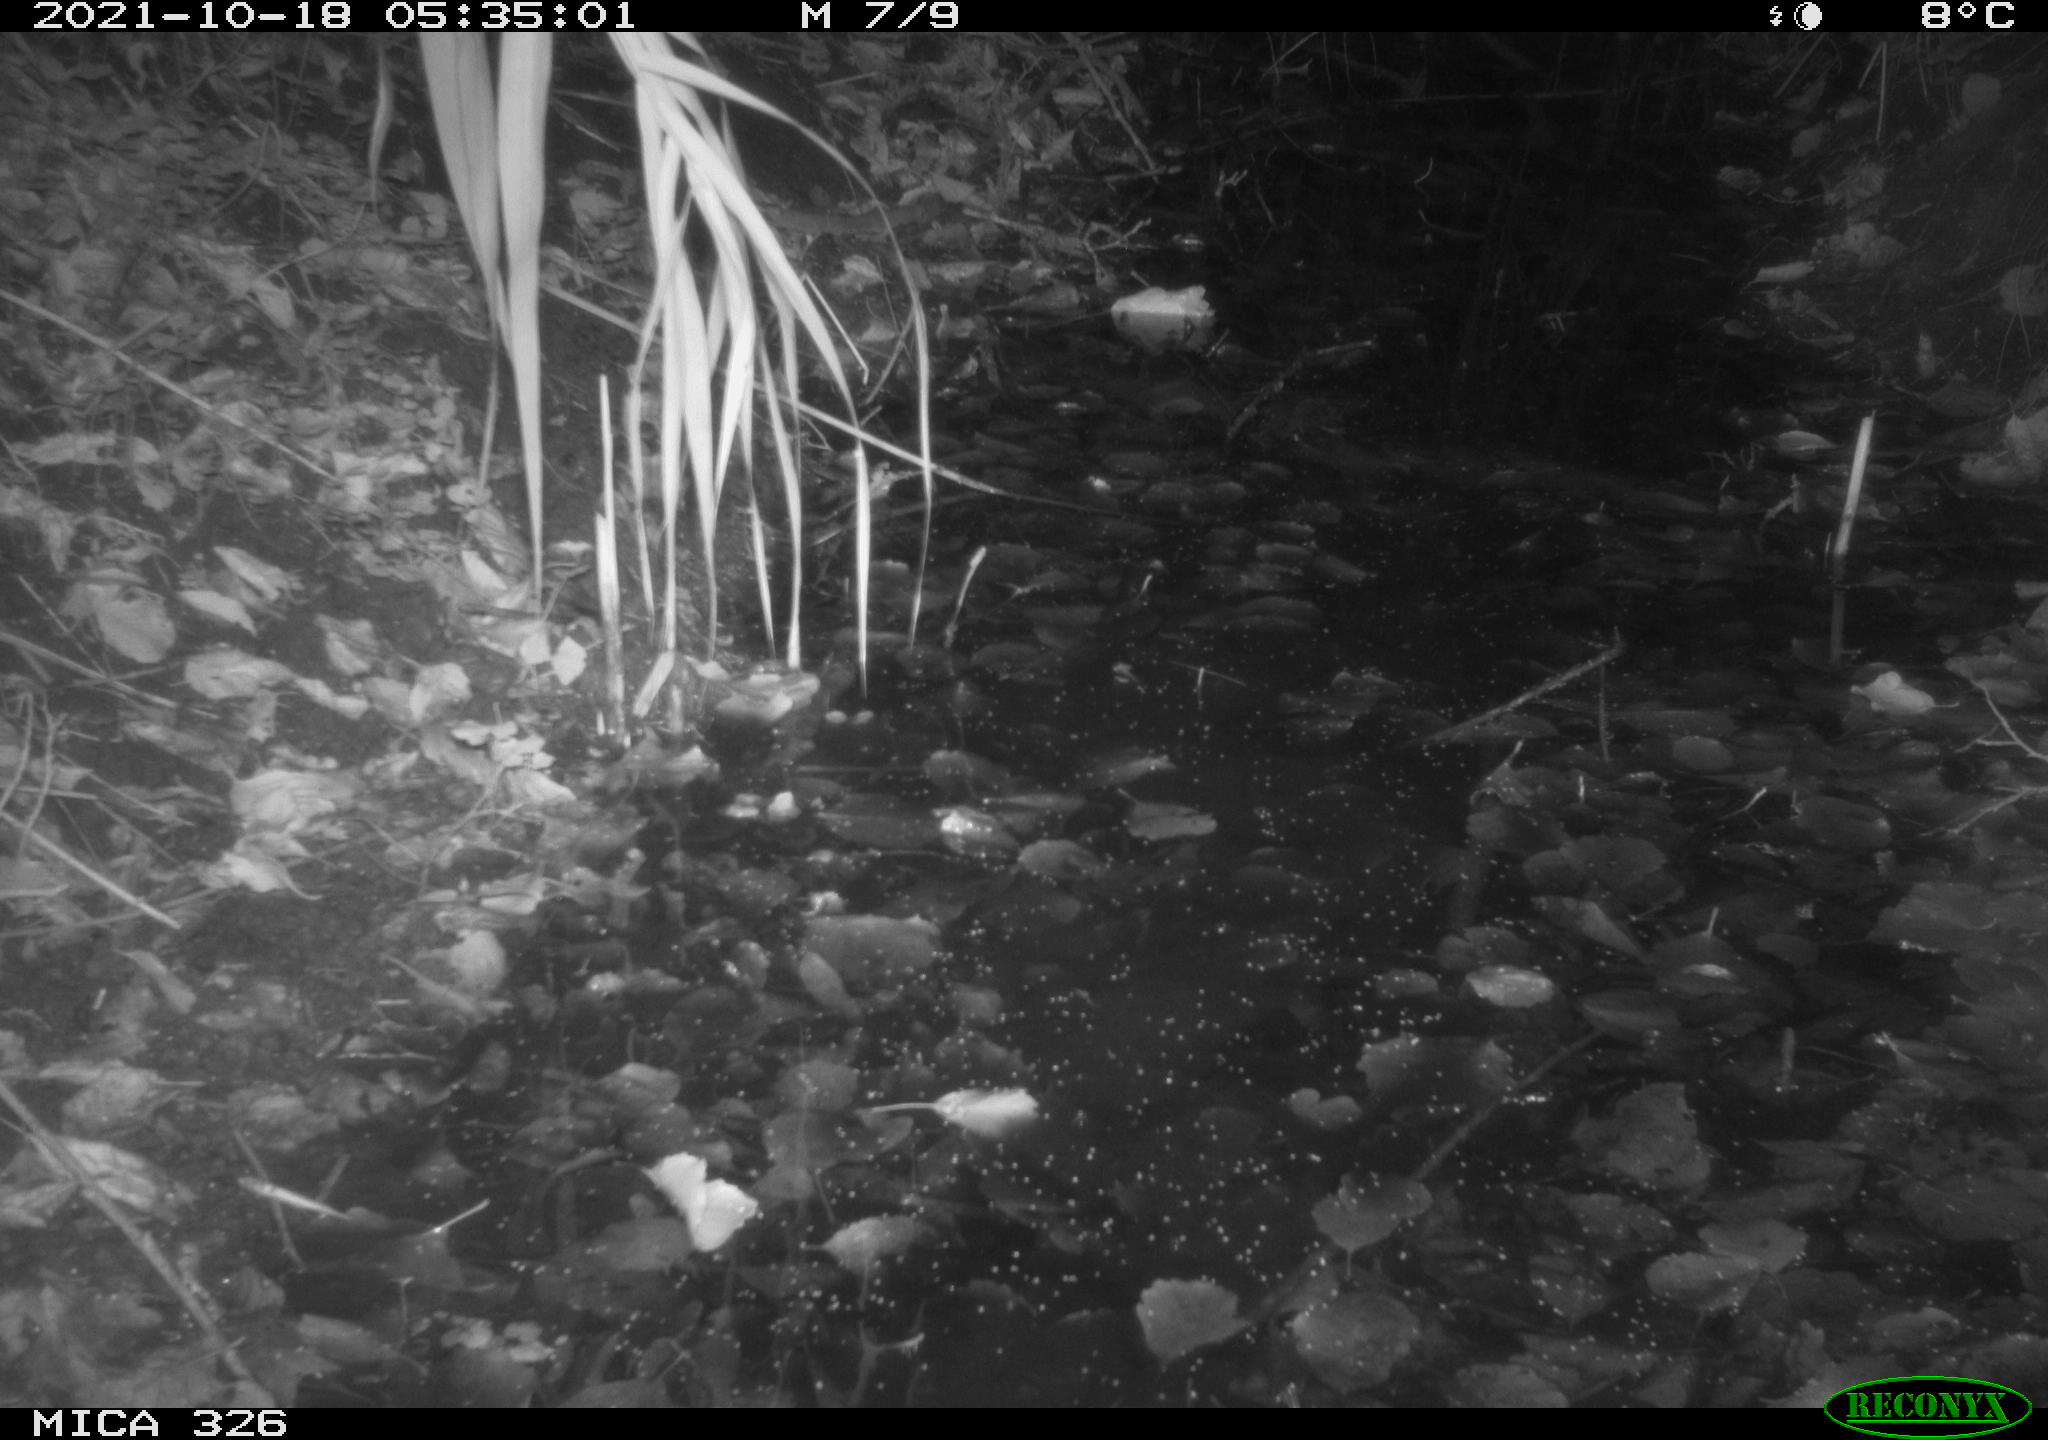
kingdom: Animalia
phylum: Chordata
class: Mammalia
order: Rodentia
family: Myocastoridae
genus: Myocastor
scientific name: Myocastor coypus
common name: Coypu
